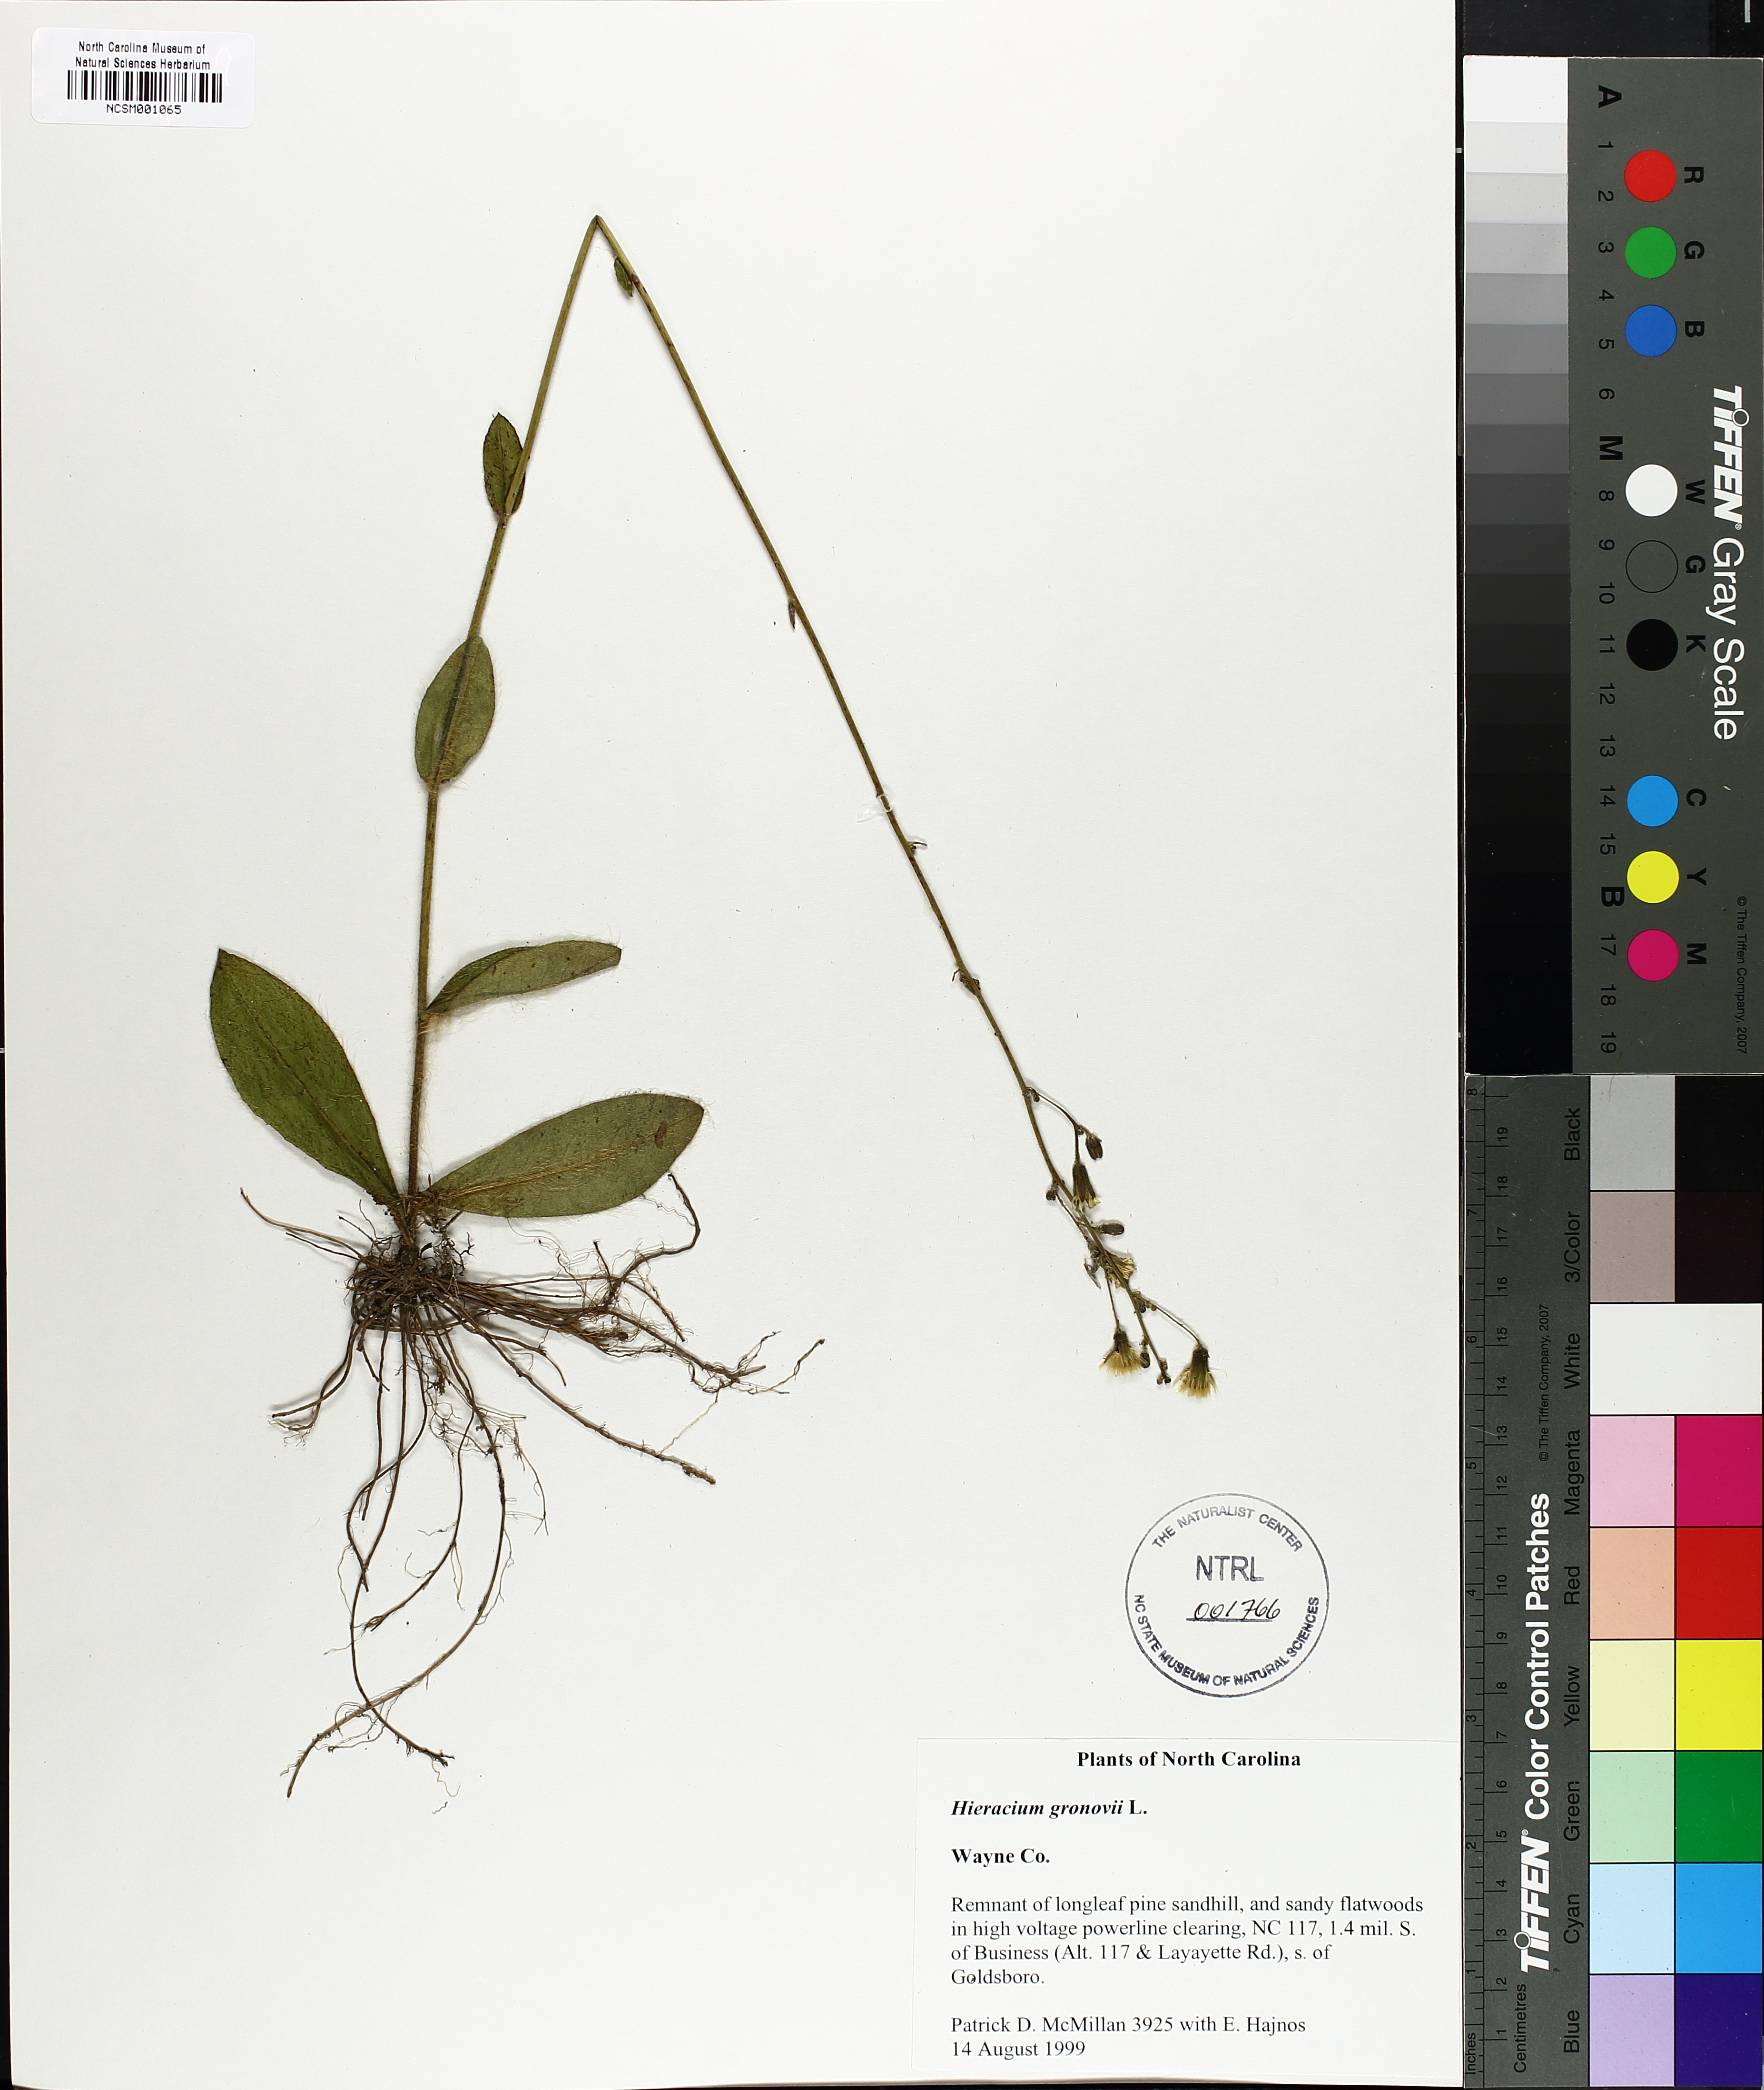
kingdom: Plantae
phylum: Tracheophyta
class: Magnoliopsida
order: Asterales
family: Asteraceae
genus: Hieracium
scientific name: Hieracium gronovii
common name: Beaked hawkweed
